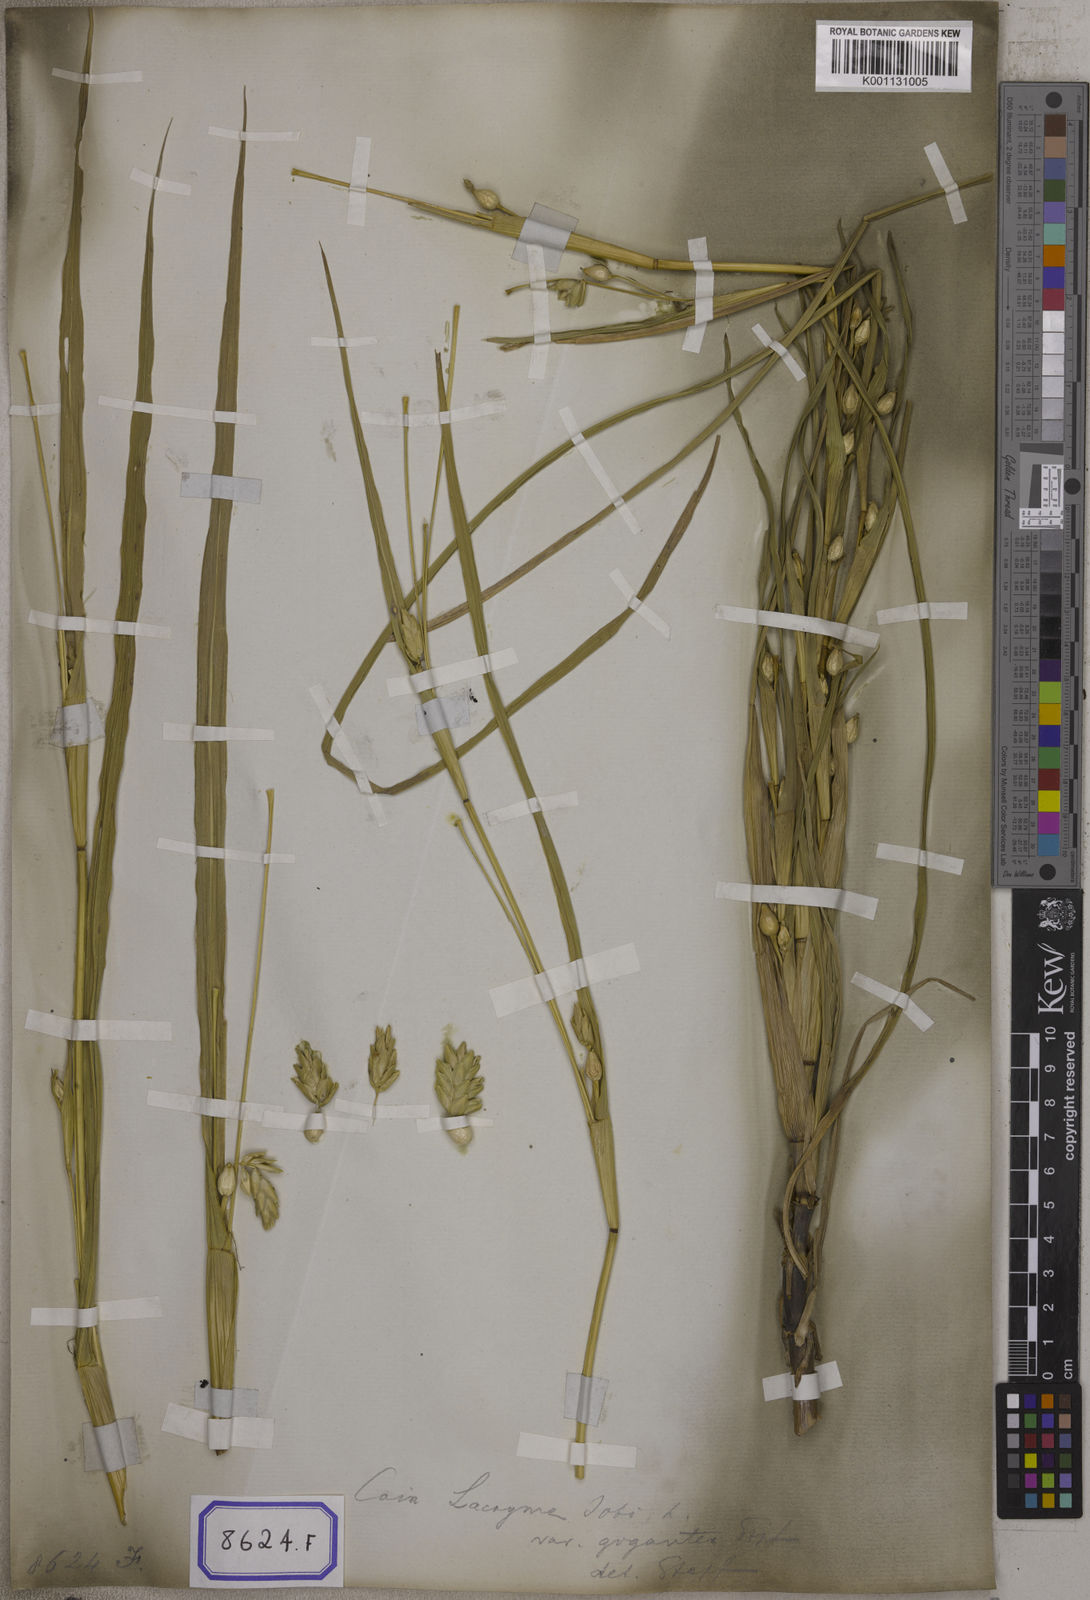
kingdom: Plantae
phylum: Tracheophyta
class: Liliopsida
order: Poales
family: Poaceae
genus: Polytoca
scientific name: Polytoca gigantea
